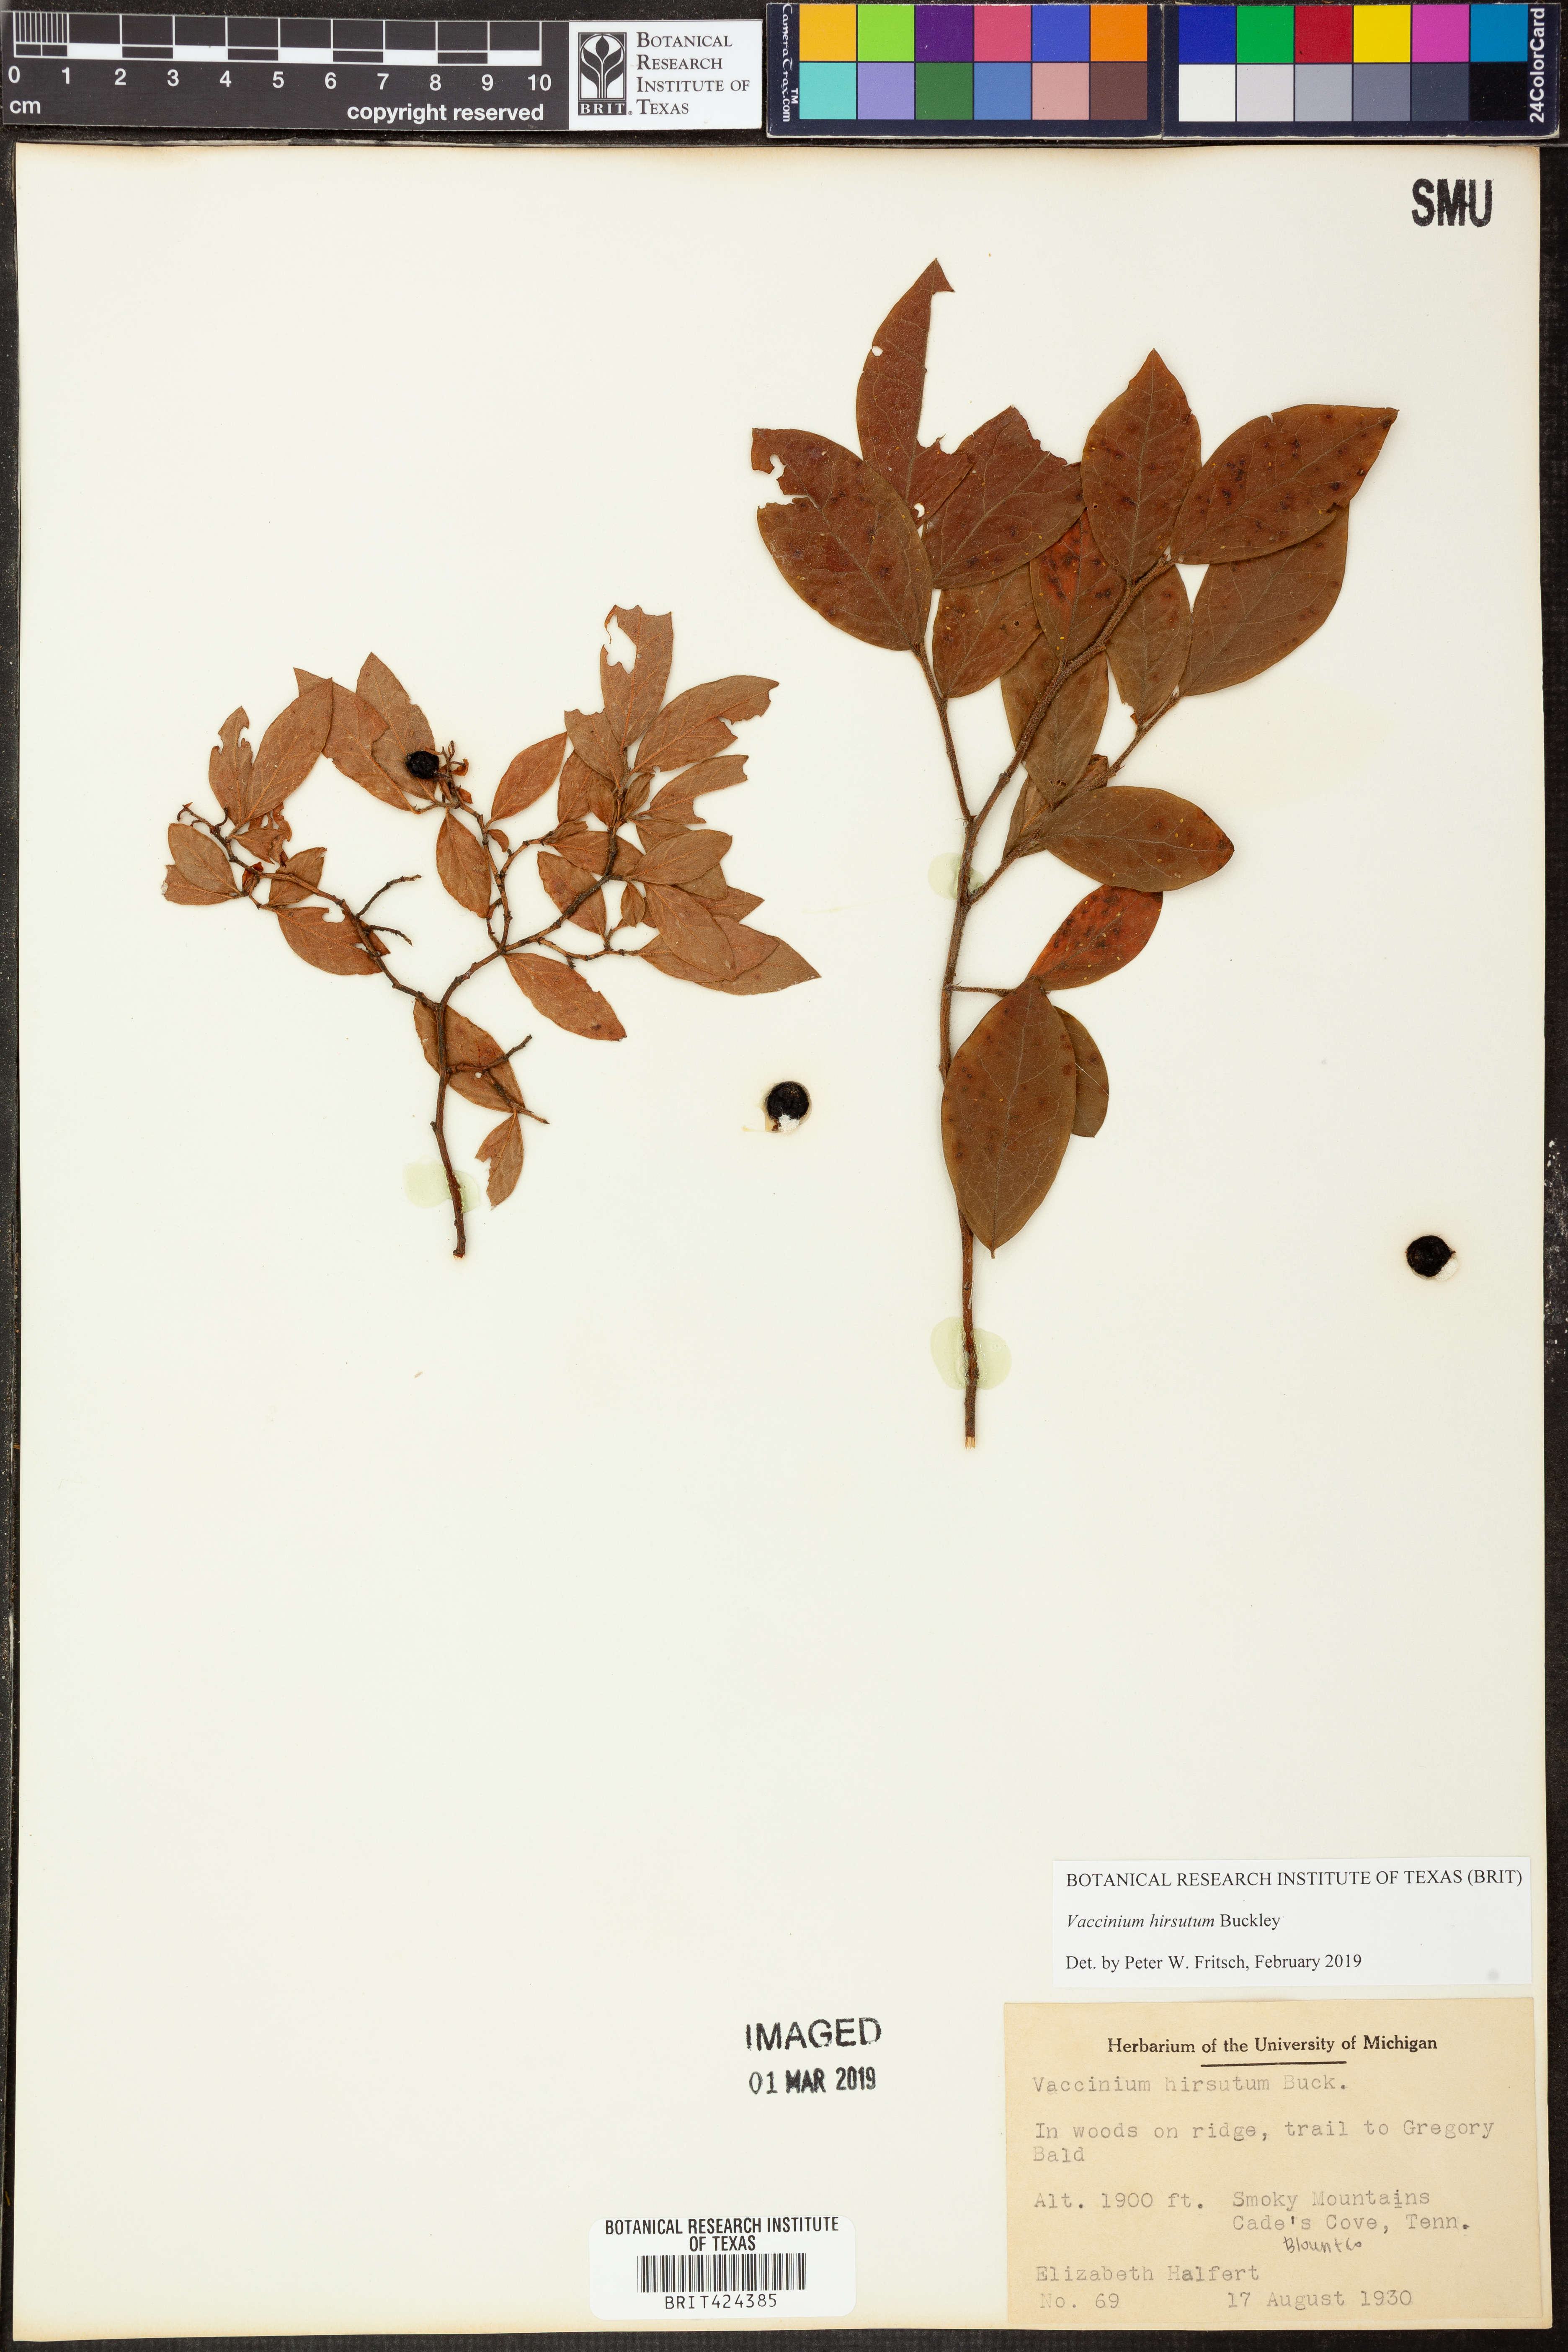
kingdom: Plantae
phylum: Tracheophyta
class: Magnoliopsida
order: Ericales
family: Ericaceae
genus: Vaccinium
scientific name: Vaccinium hirsutum
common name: Woolly-berry
